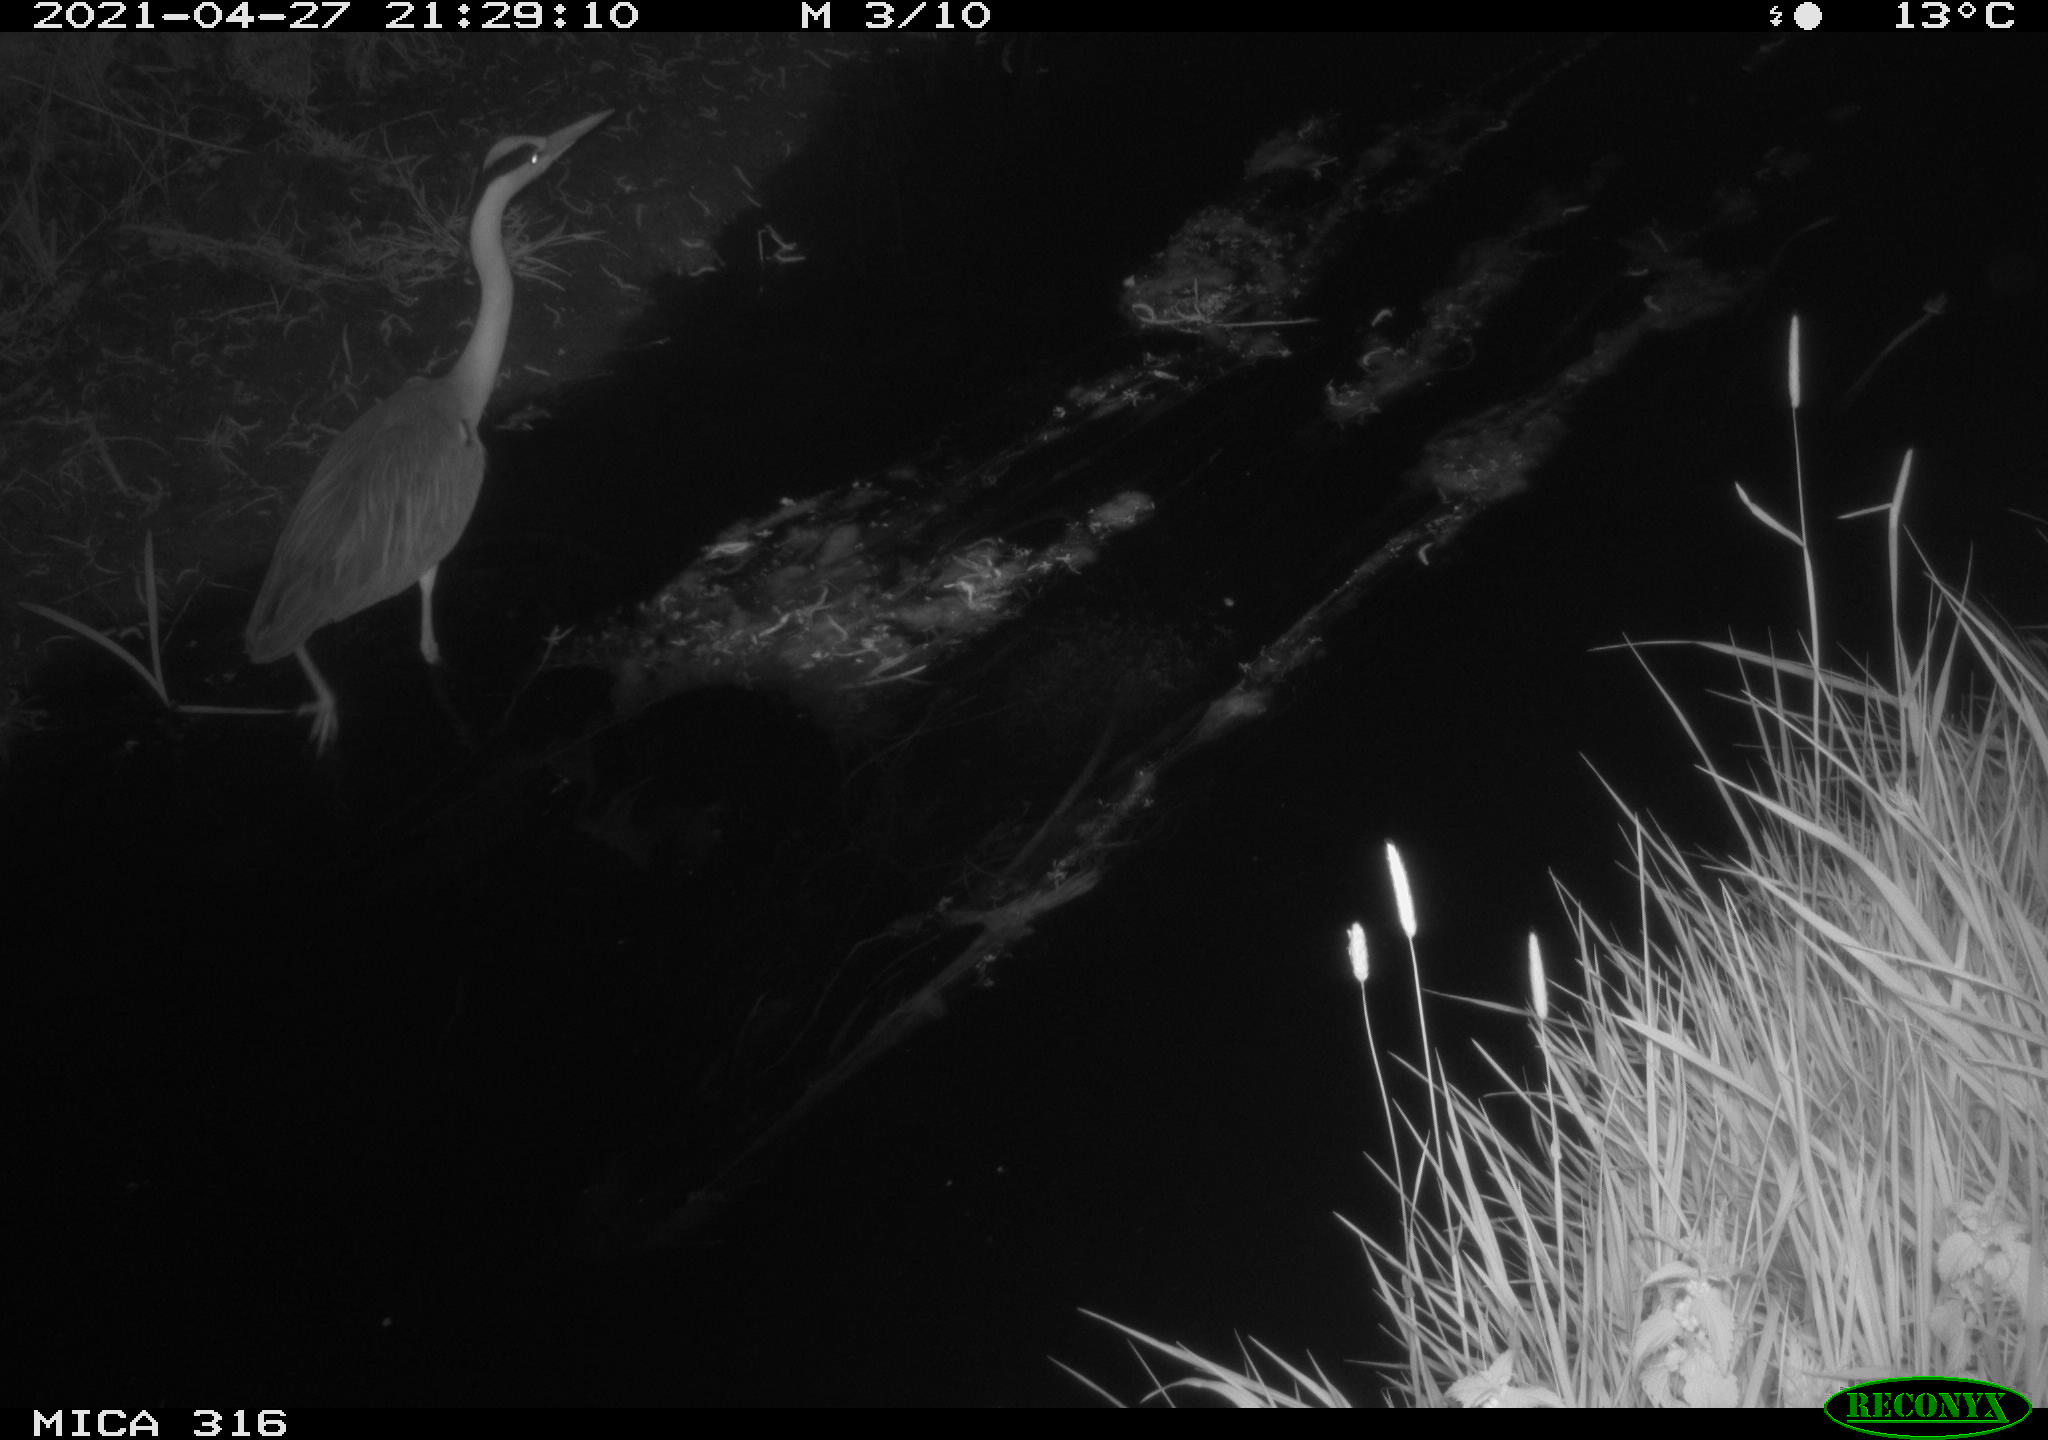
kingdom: Animalia
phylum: Chordata
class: Aves
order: Pelecaniformes
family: Ardeidae
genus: Ardea
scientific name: Ardea cinerea
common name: Grey heron
